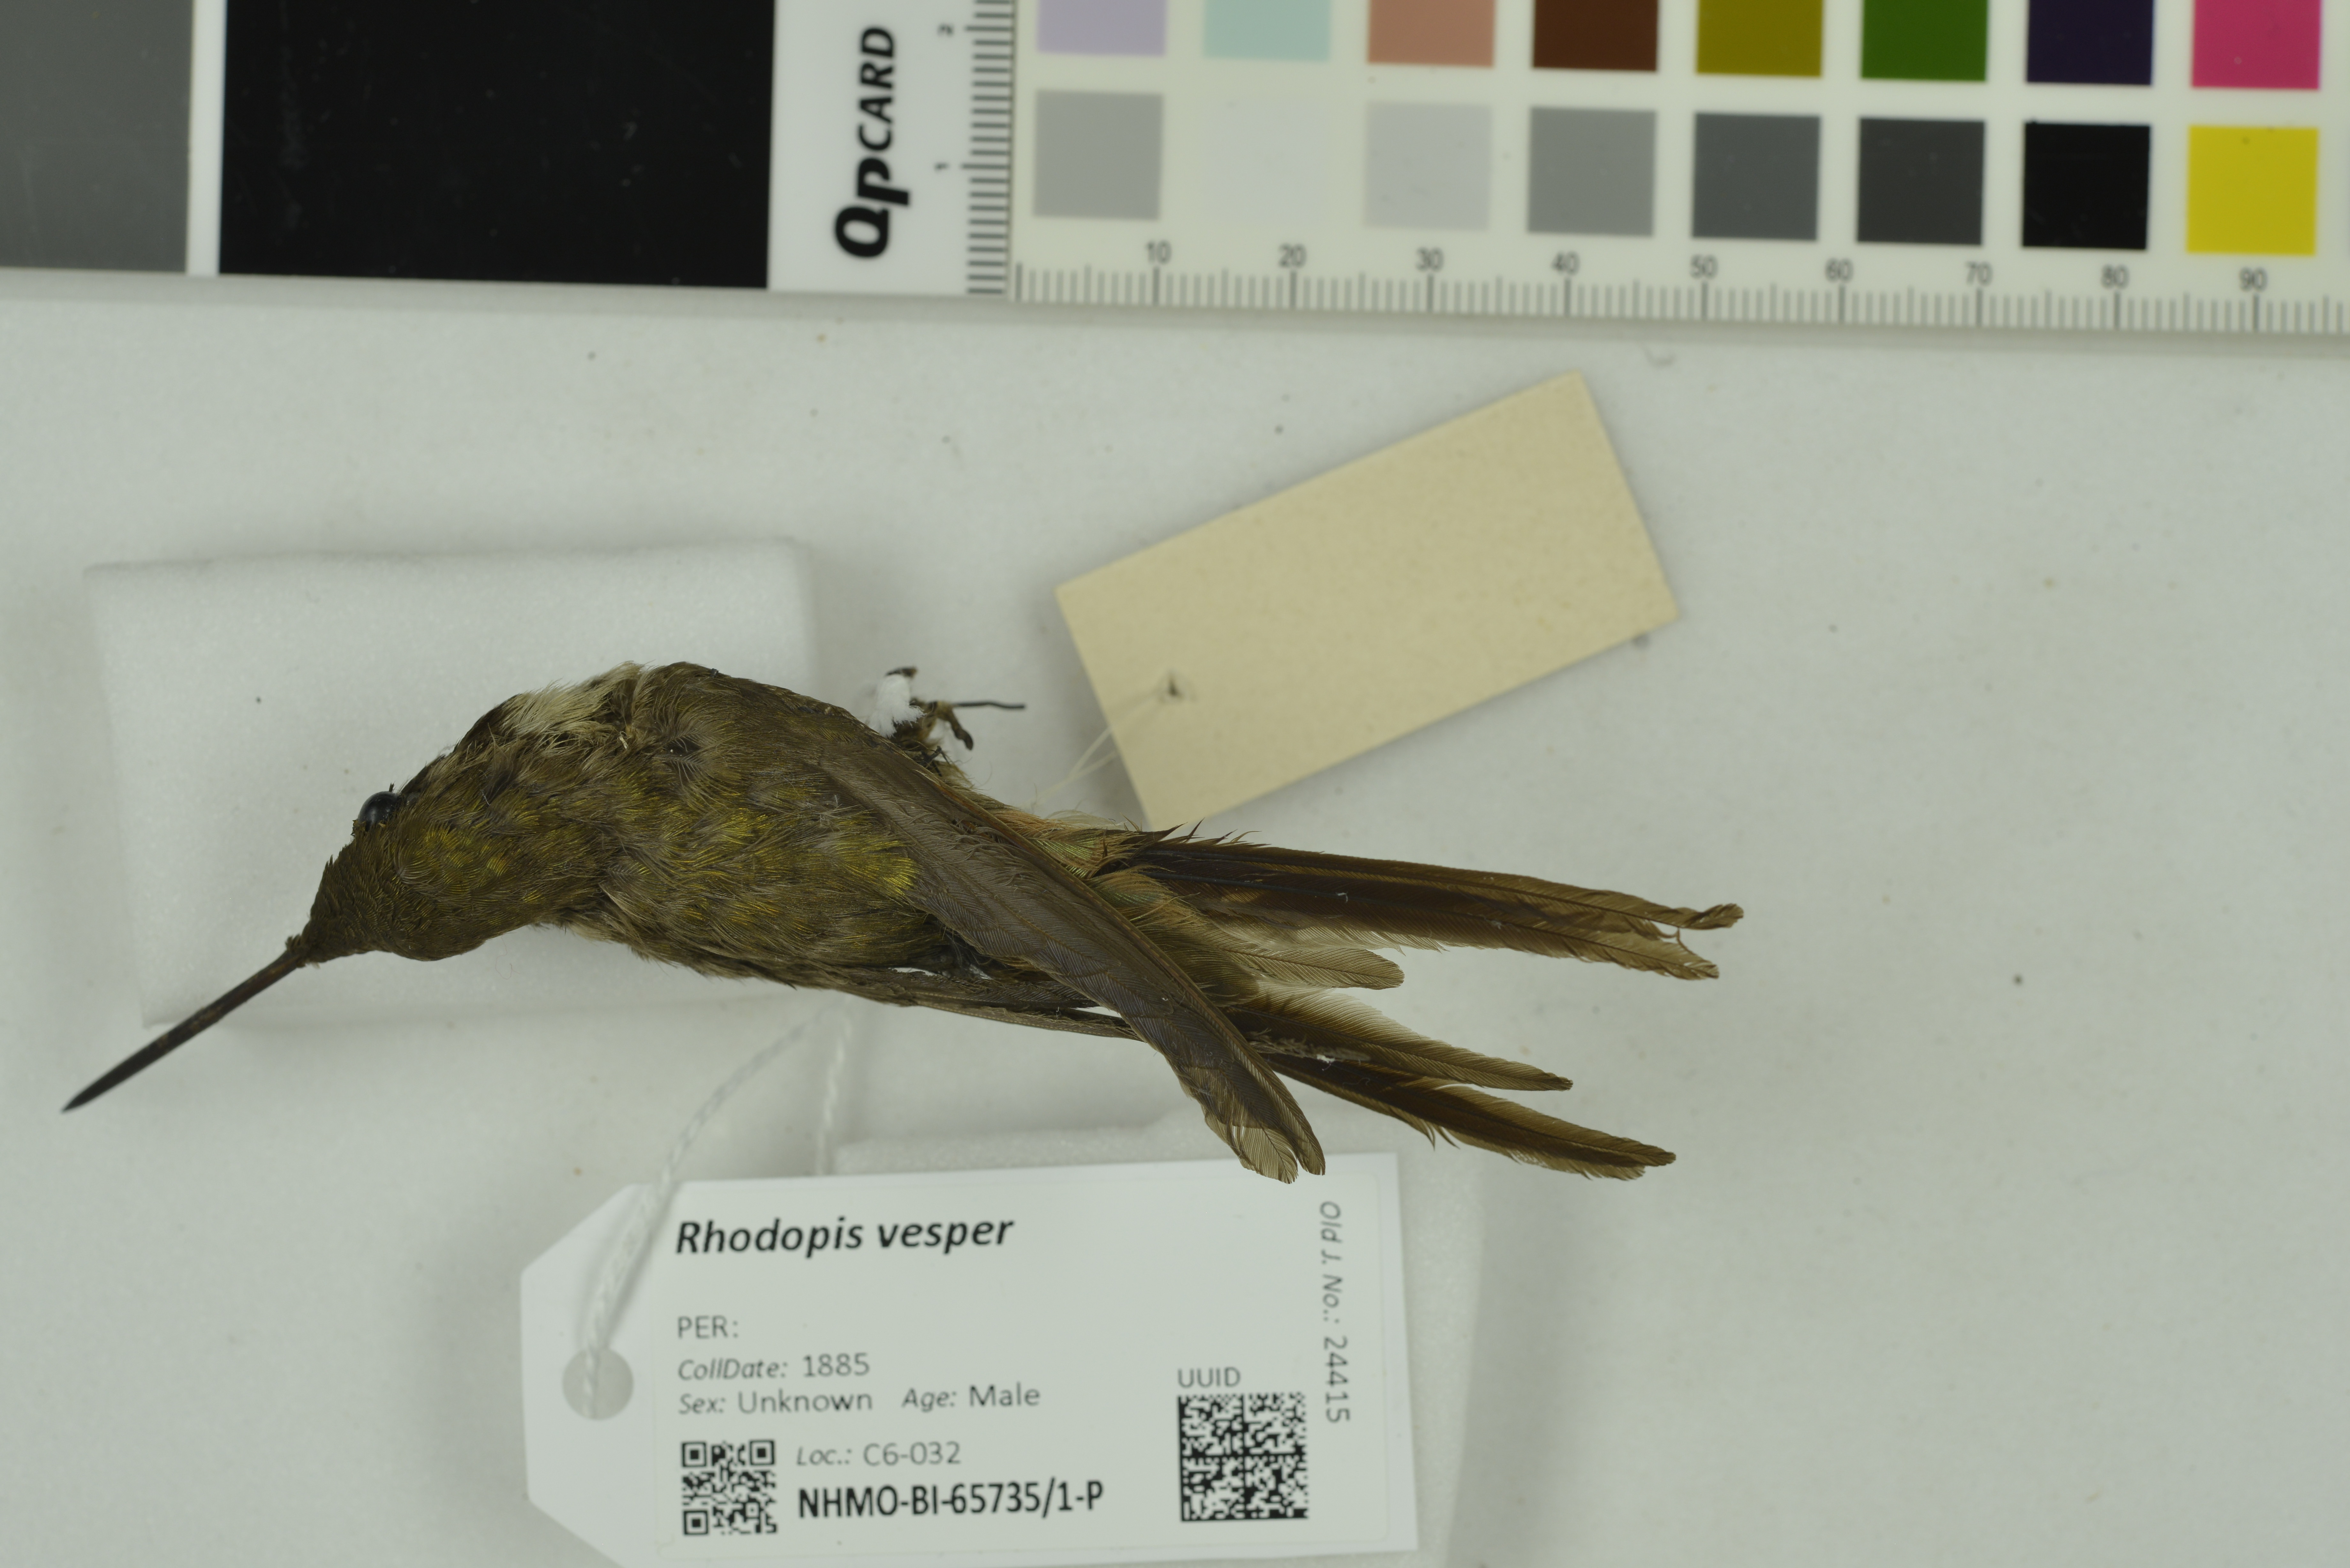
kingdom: Animalia
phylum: Chordata
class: Aves
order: Apodiformes
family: Trochilidae
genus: Rhodopis
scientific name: Rhodopis vesper
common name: Oasis hummingbird
